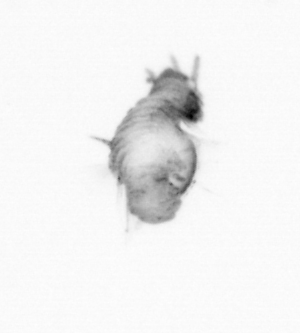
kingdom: Animalia
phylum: Annelida
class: Polychaeta
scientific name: Polychaeta
